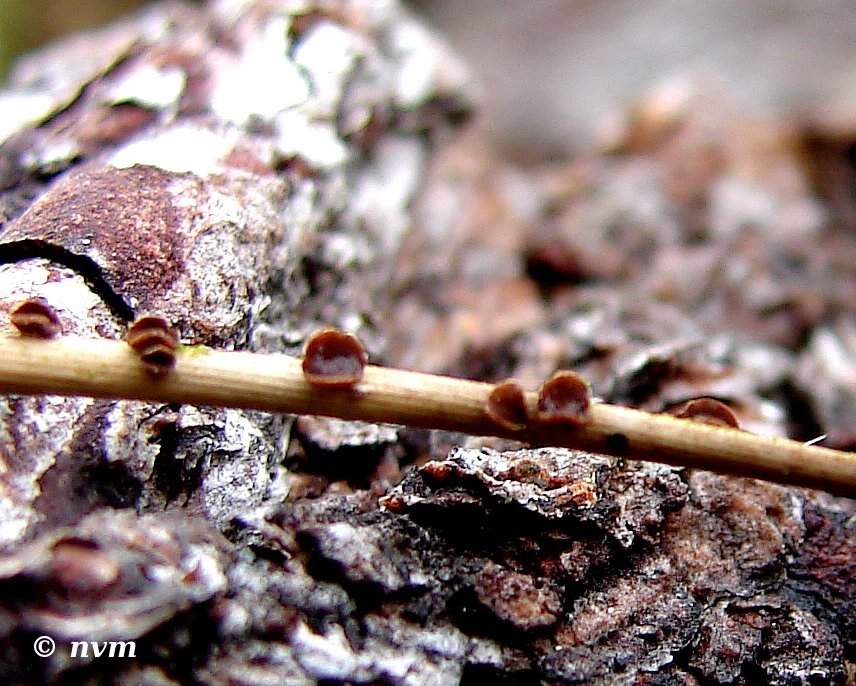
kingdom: Fungi
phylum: Ascomycota
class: Leotiomycetes
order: Helotiales
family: Cenangiaceae
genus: Cenangium
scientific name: Cenangium acuum
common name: nåle-rustskive
